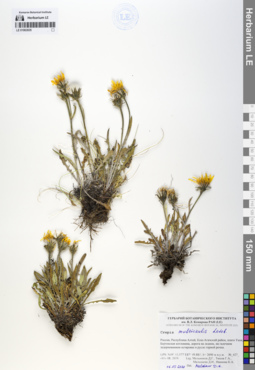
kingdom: Plantae
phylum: Tracheophyta
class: Magnoliopsida
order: Asterales
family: Asteraceae
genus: Crepis
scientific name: Crepis multicaulis
